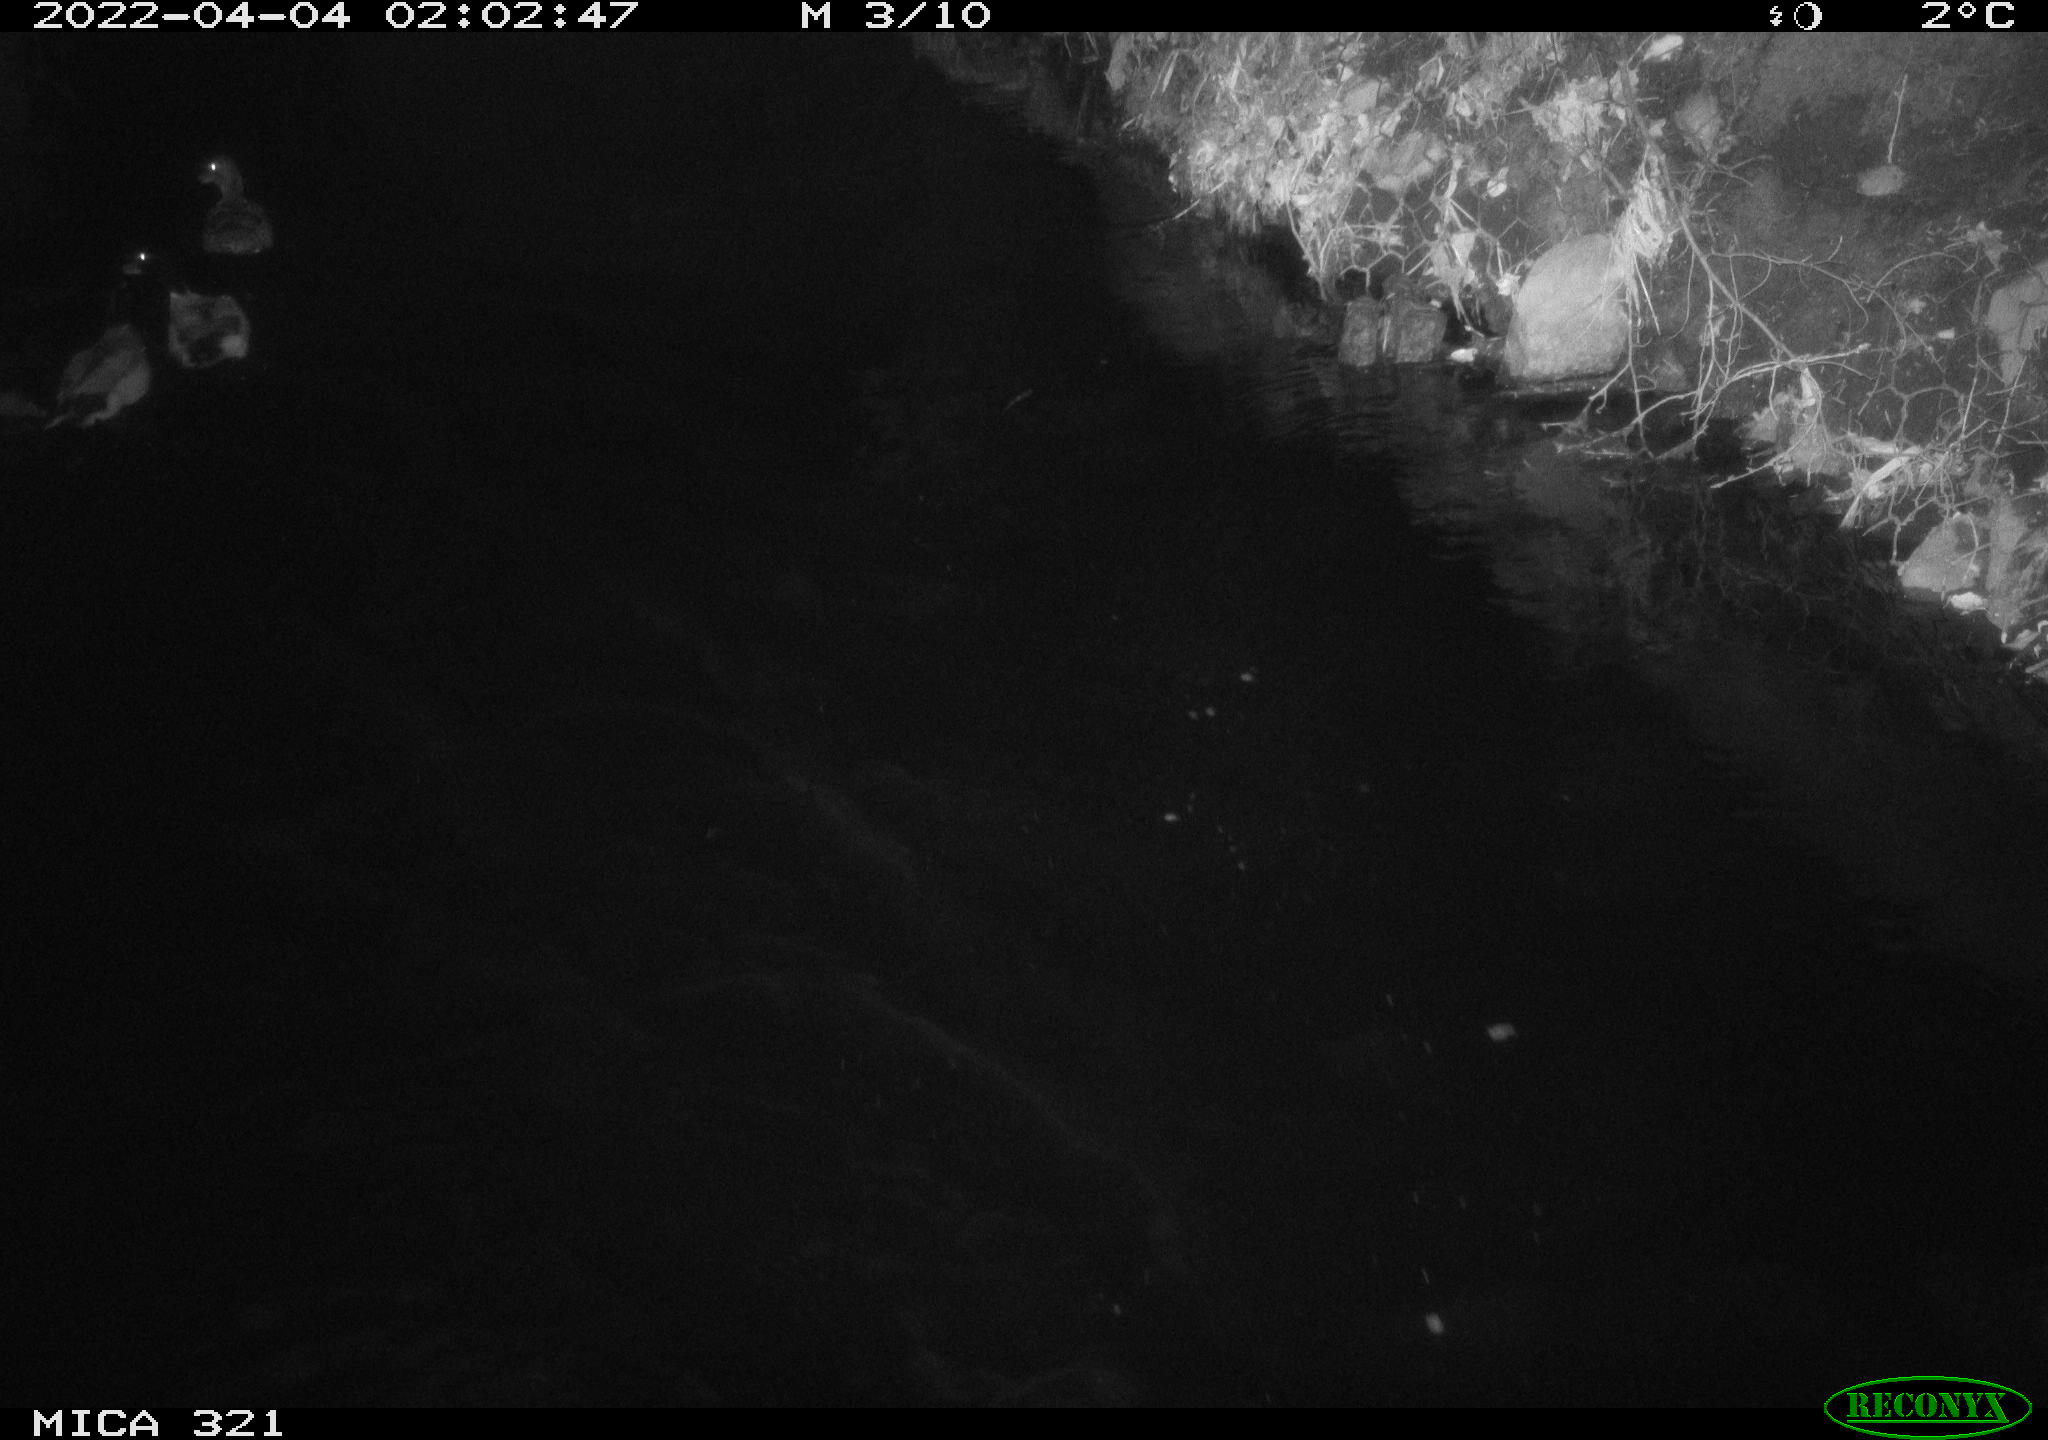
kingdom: Animalia
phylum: Chordata
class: Aves
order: Anseriformes
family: Anatidae
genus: Anas
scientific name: Anas platyrhynchos
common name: Mallard
